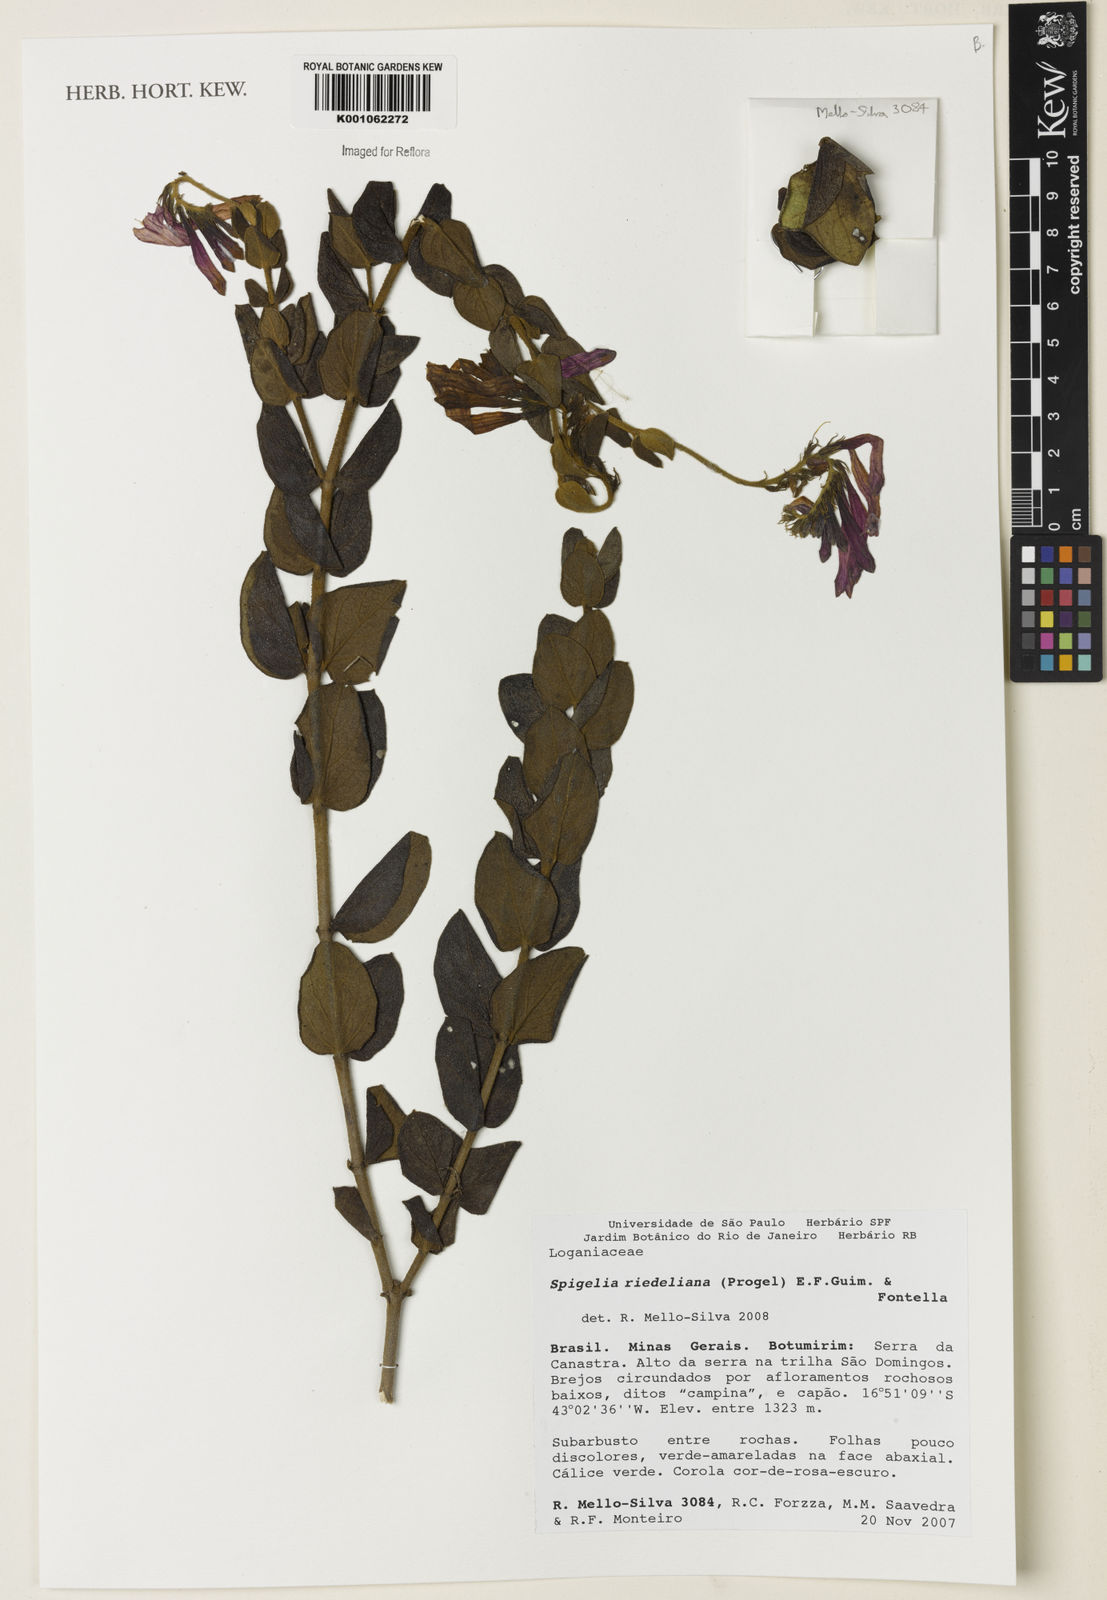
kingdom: Plantae
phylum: Tracheophyta
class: Magnoliopsida
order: Gentianales
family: Loganiaceae
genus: Spigelia
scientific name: Spigelia sellowiana
